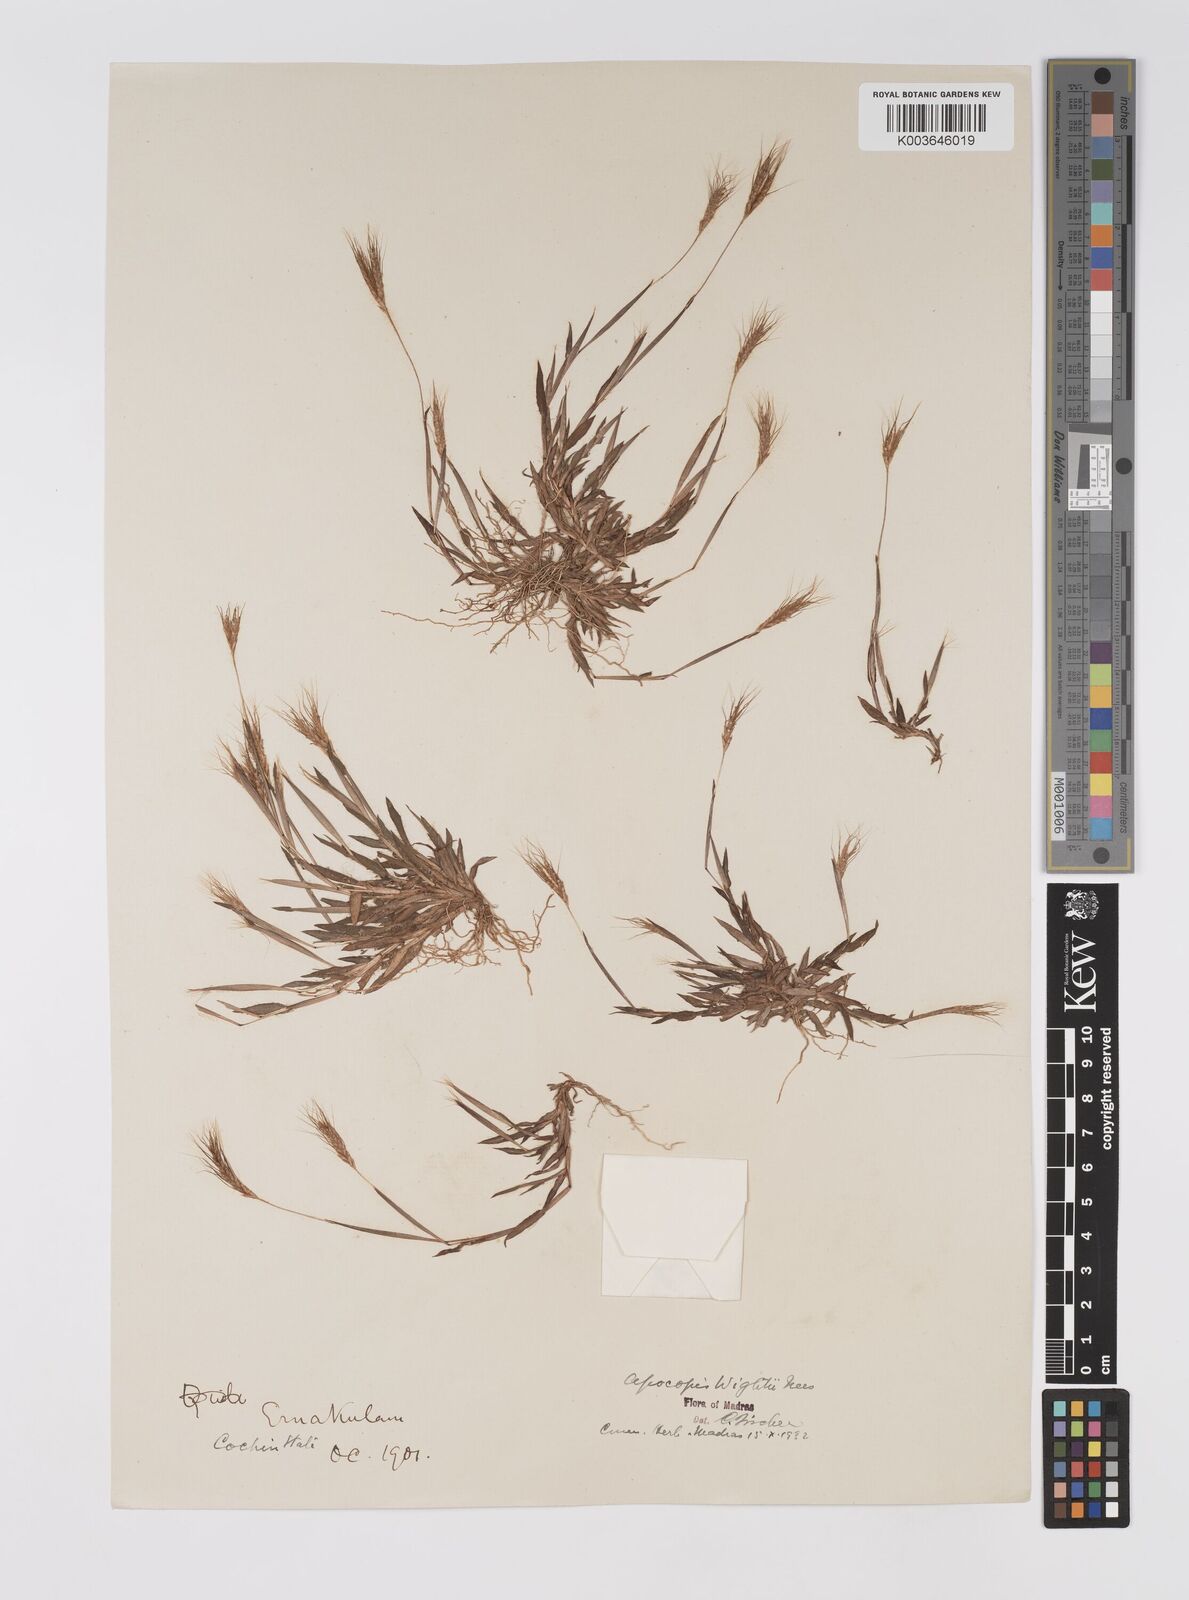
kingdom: Plantae
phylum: Tracheophyta
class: Liliopsida
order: Poales
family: Poaceae
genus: Apocopis
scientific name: Apocopis mangalorensis
